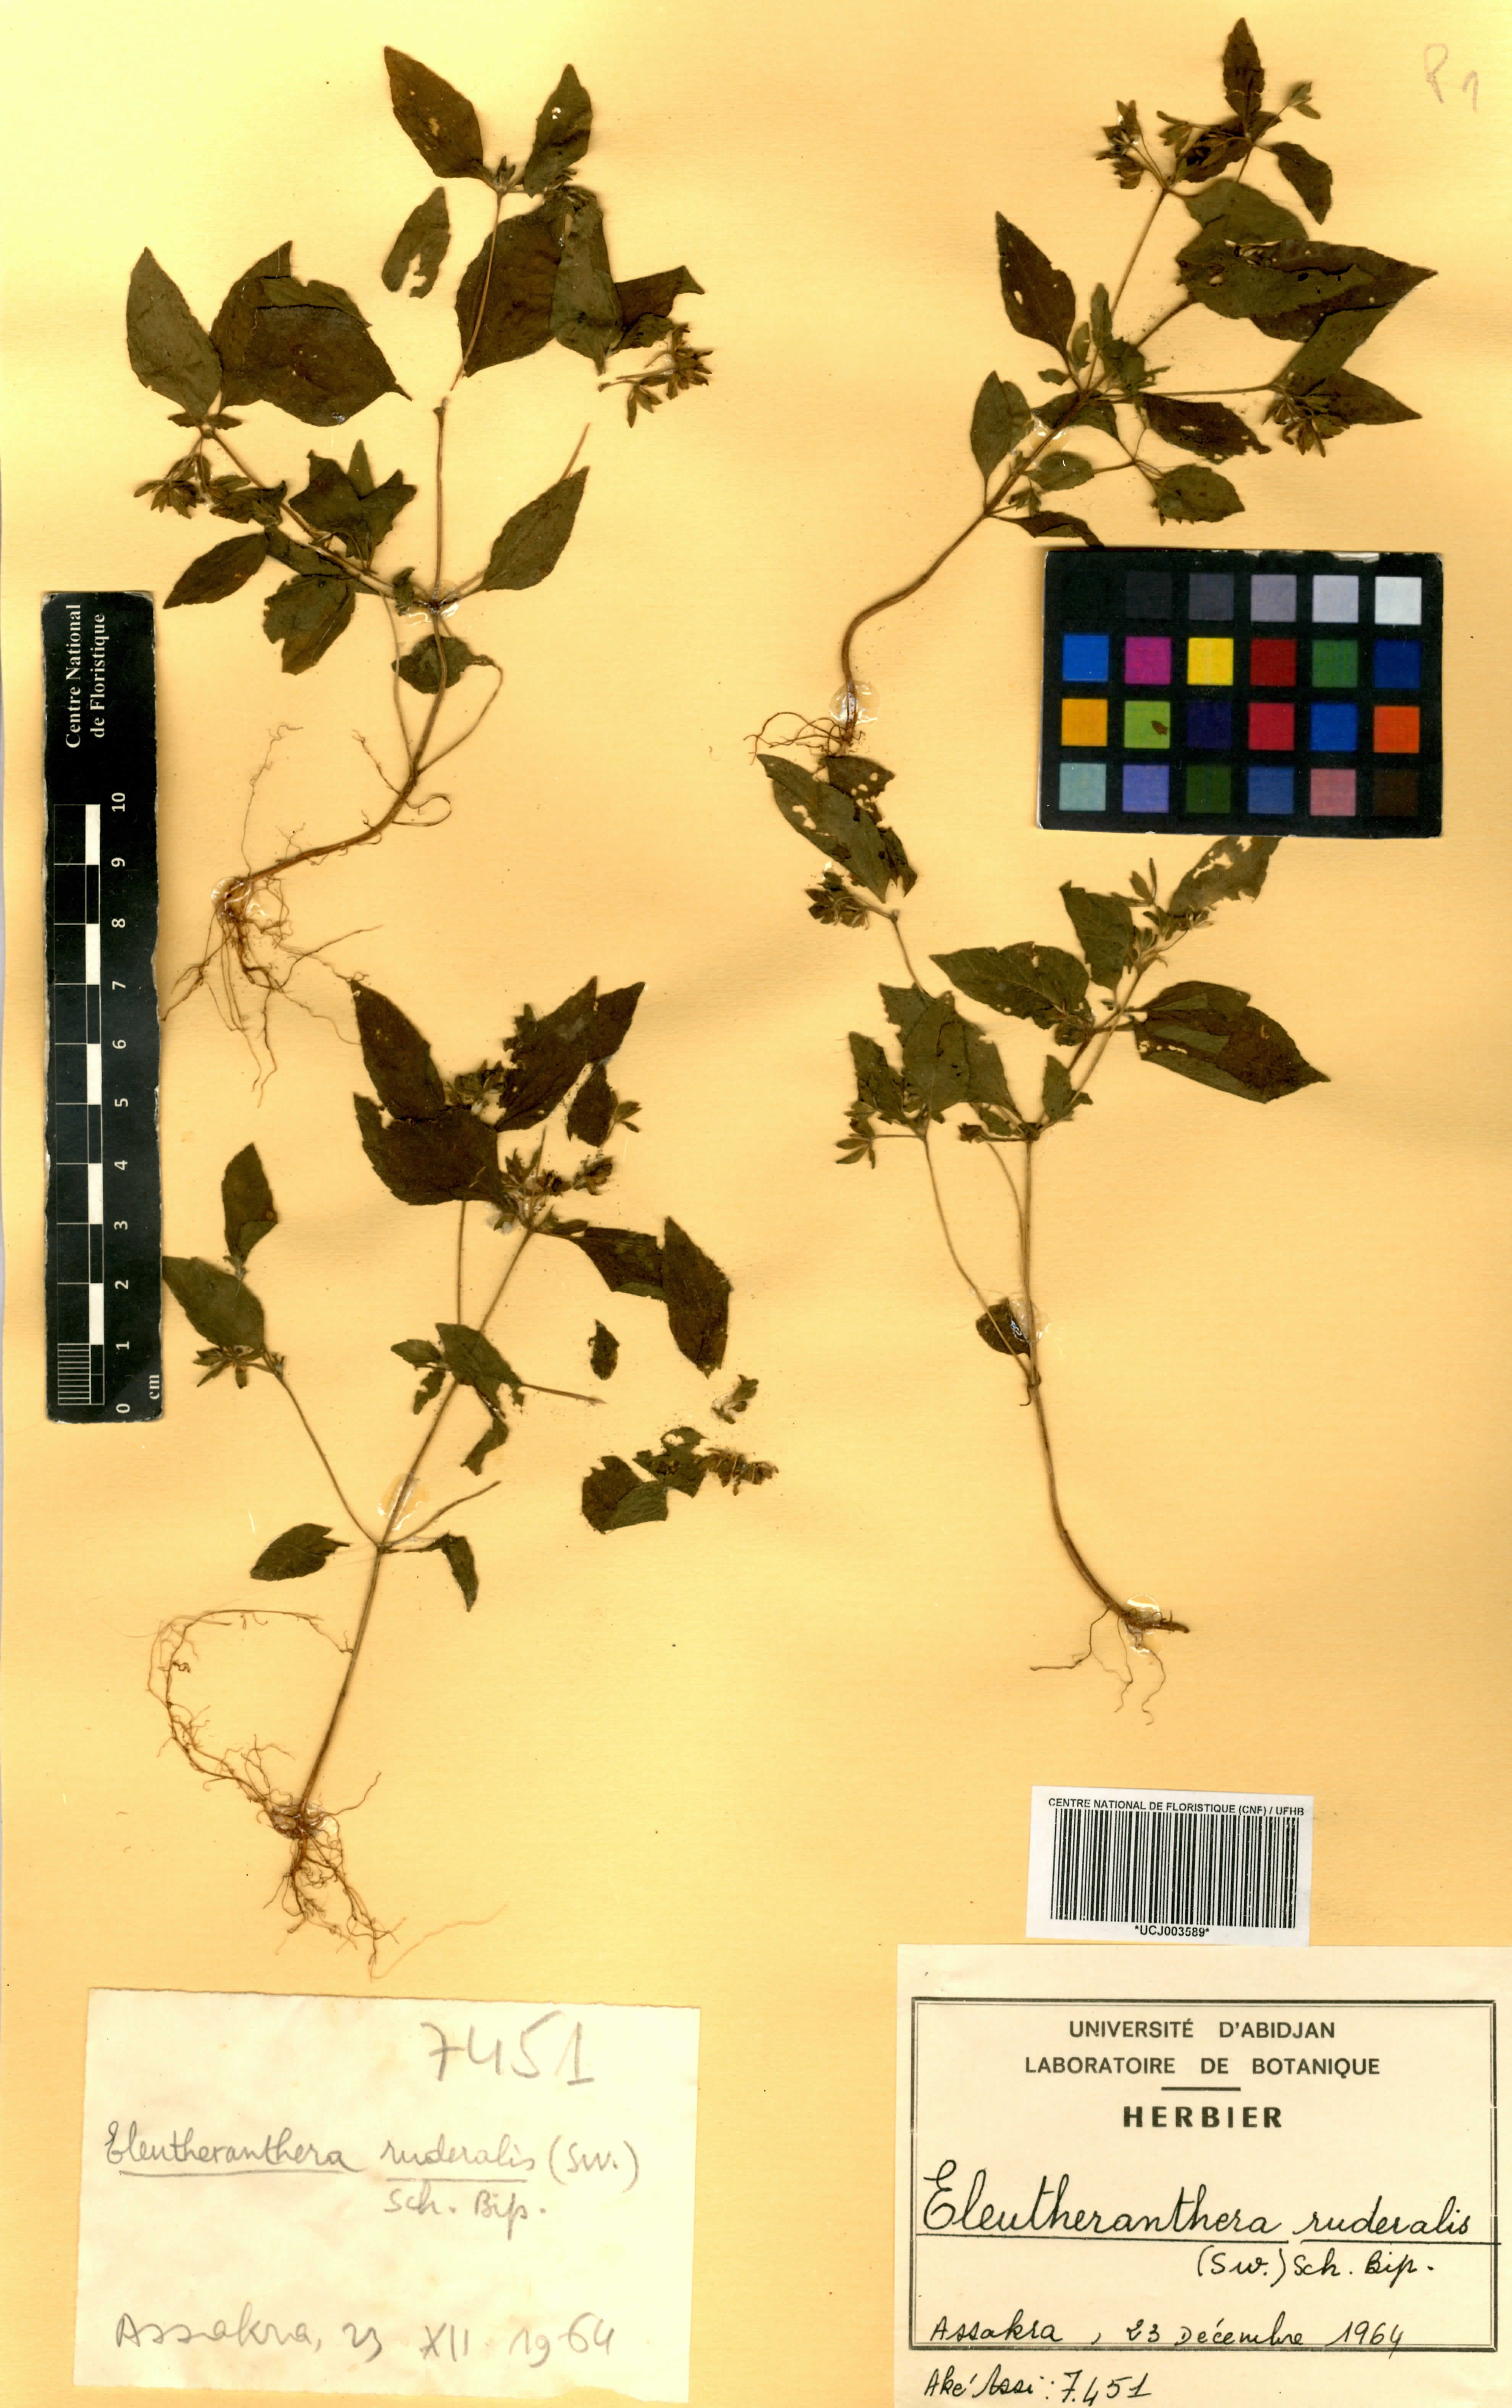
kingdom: Plantae
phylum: Tracheophyta
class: Magnoliopsida
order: Asterales
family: Asteraceae
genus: Eleutheranthera
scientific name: Eleutheranthera ruderalis
